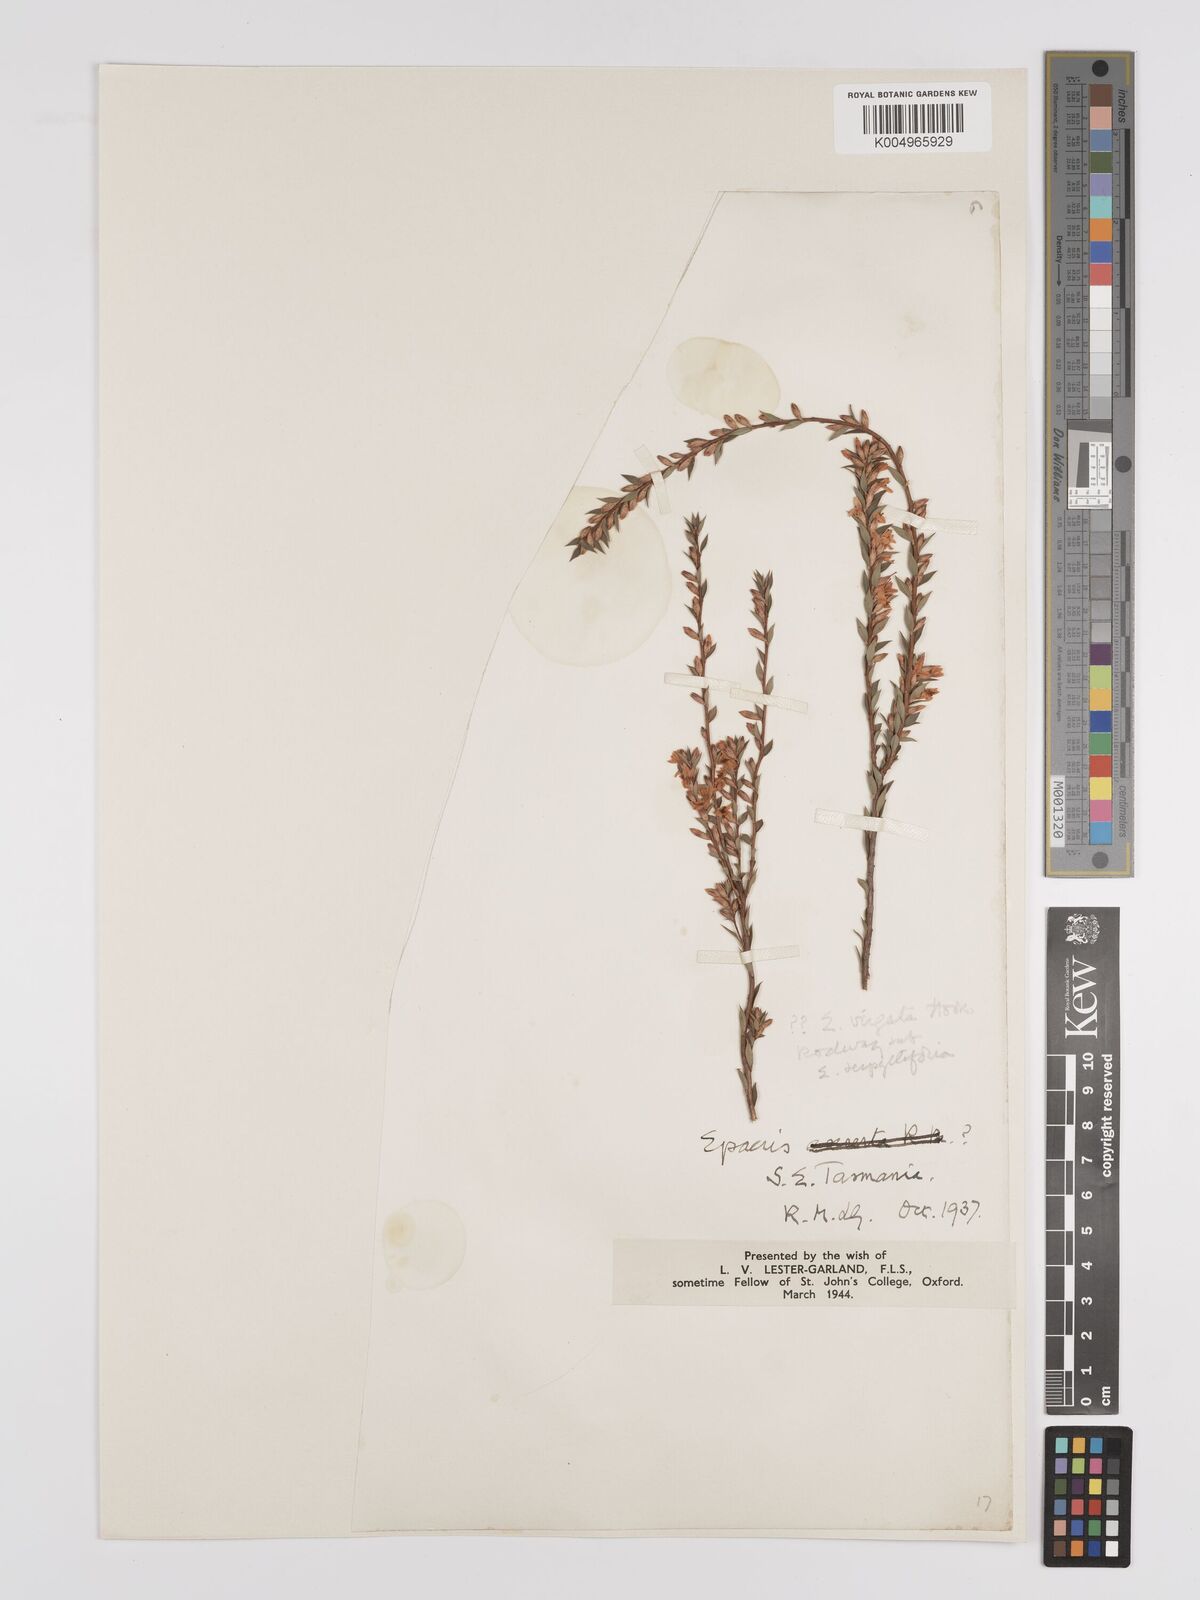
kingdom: Plantae
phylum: Tracheophyta
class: Magnoliopsida
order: Ericales
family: Ericaceae
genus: Epacris
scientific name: Epacris virgata
